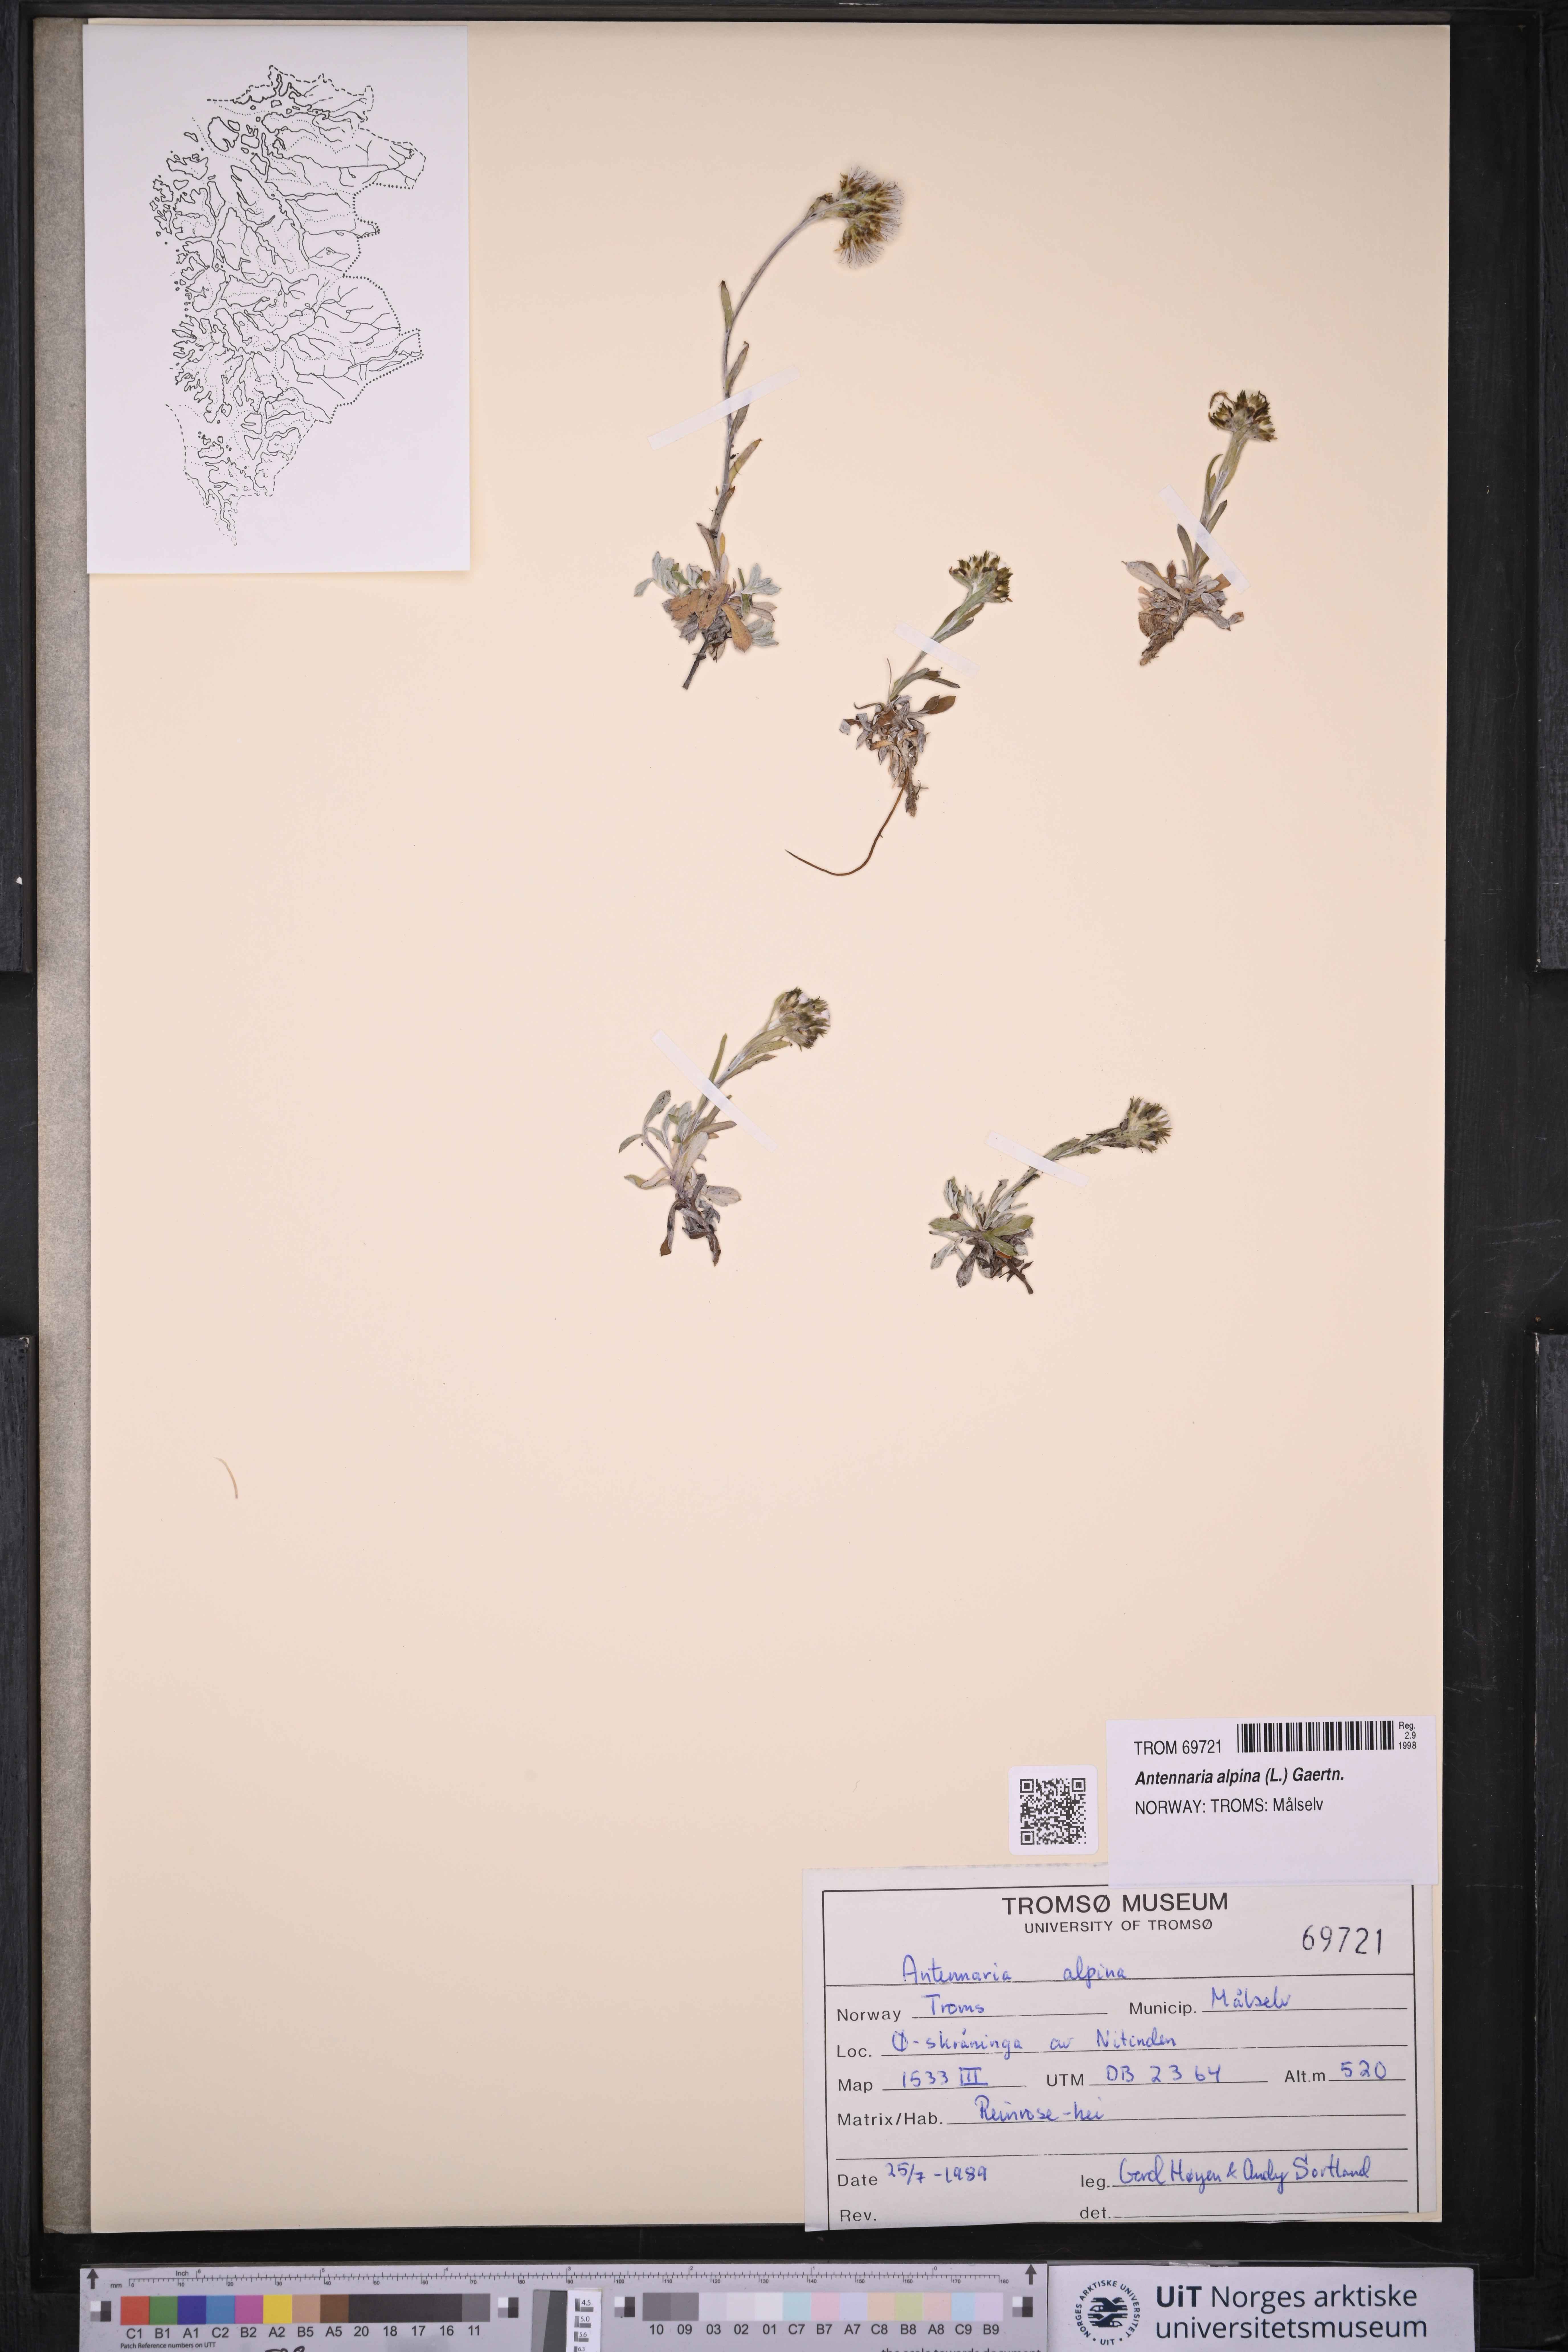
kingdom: Plantae
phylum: Tracheophyta
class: Magnoliopsida
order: Asterales
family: Asteraceae
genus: Antennaria
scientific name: Antennaria alpina
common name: Alpine pussytoes
